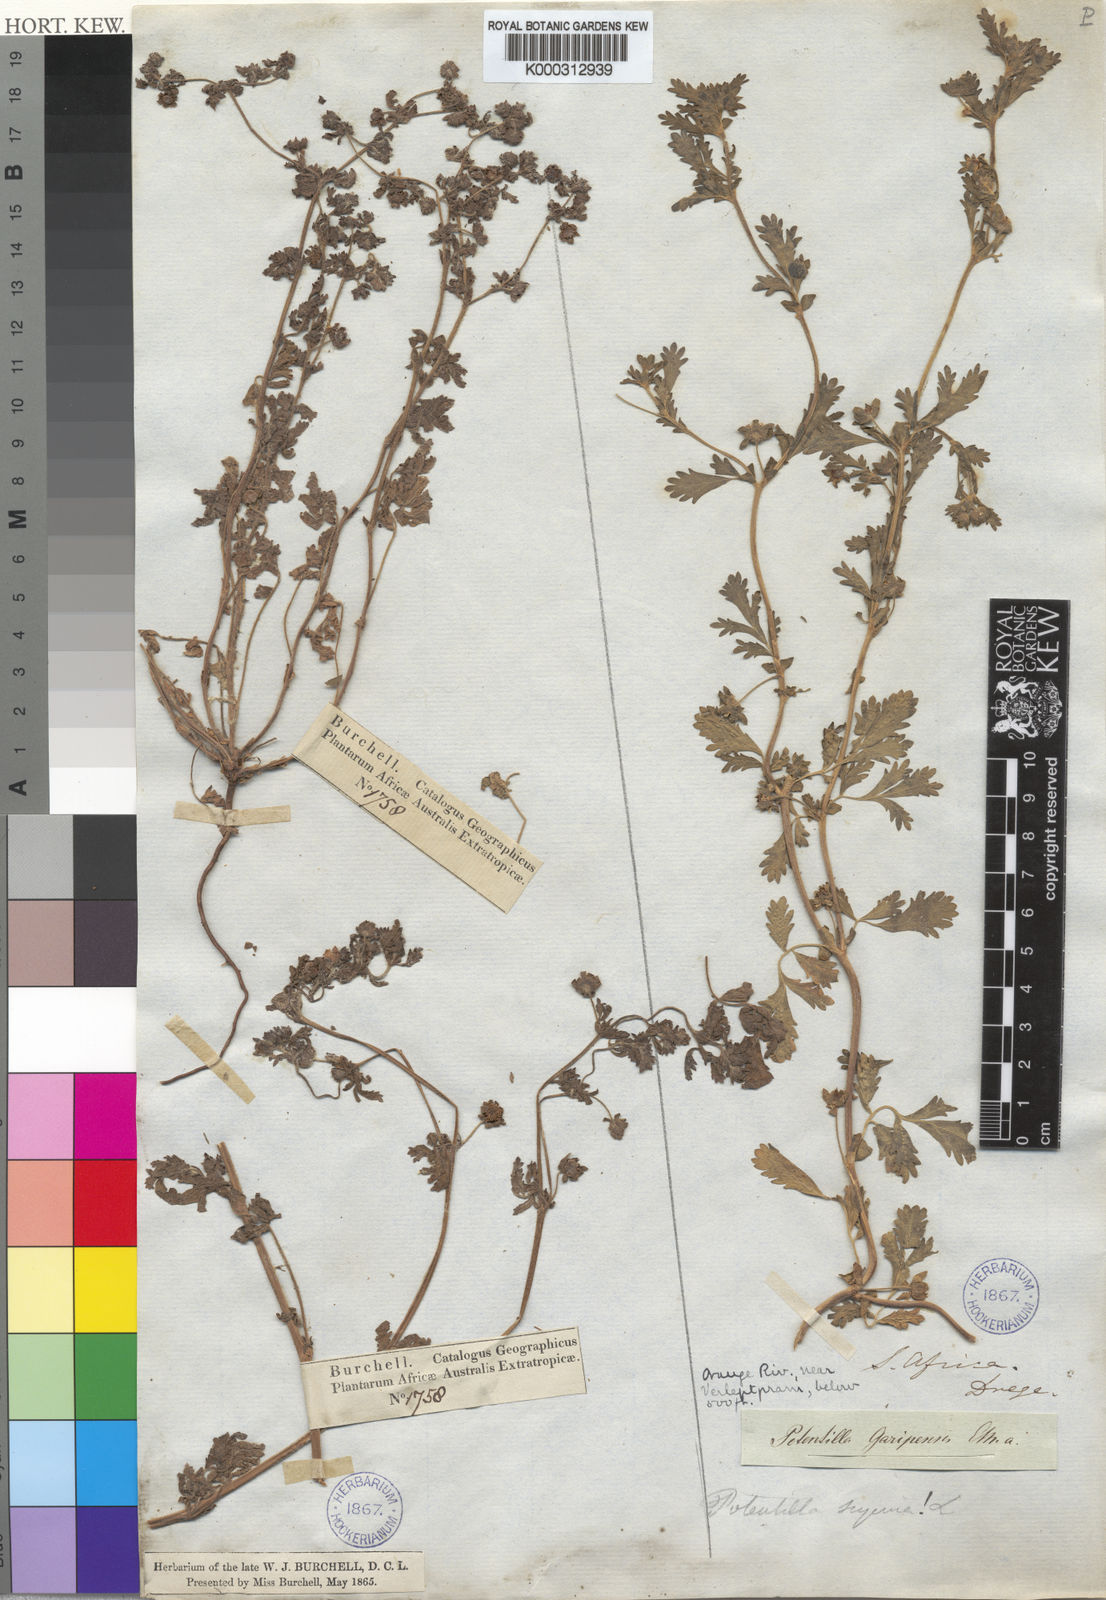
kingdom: Plantae
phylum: Tracheophyta
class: Magnoliopsida
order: Rosales
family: Rosaceae
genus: Potentilla
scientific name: Potentilla supina
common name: Prostrate cinquefoil
